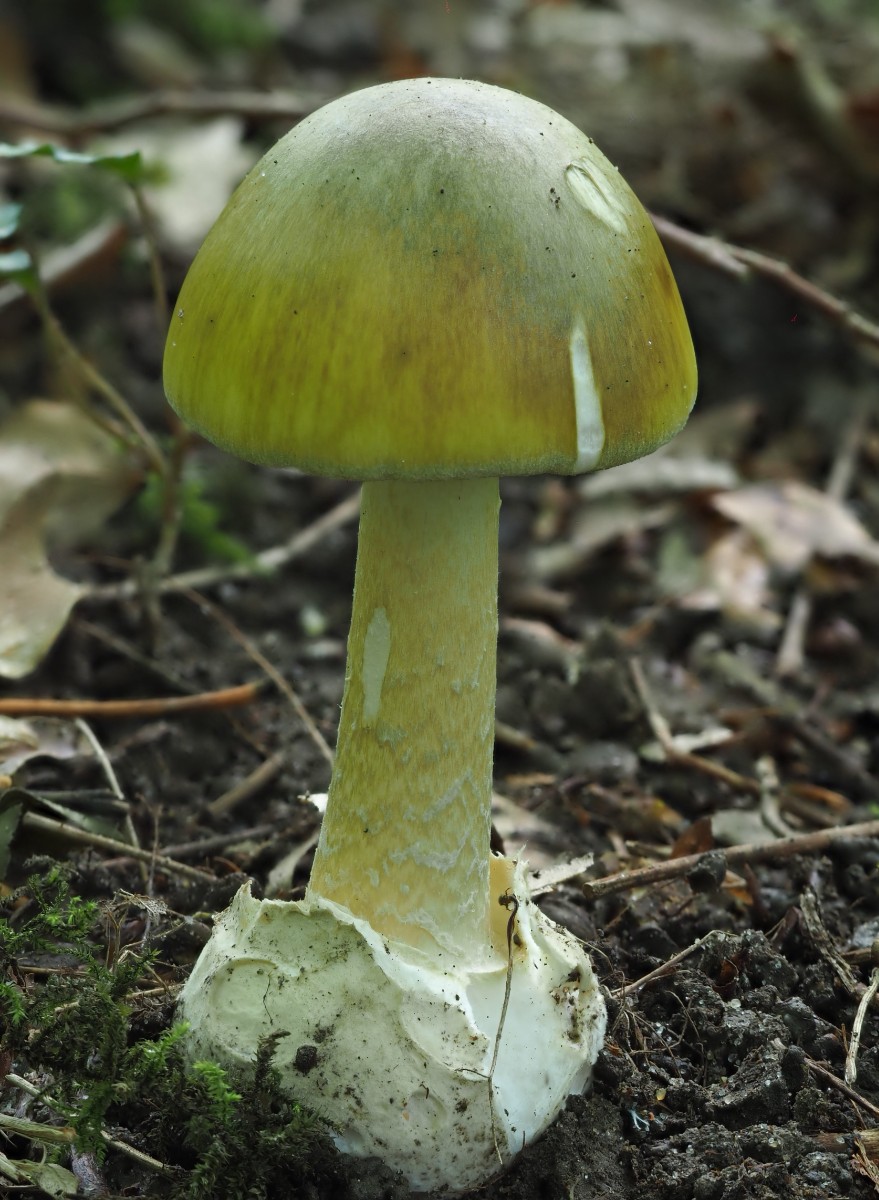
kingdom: Fungi
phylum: Basidiomycota
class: Agaricomycetes
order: Agaricales
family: Amanitaceae
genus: Amanita
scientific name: Amanita phalloides
